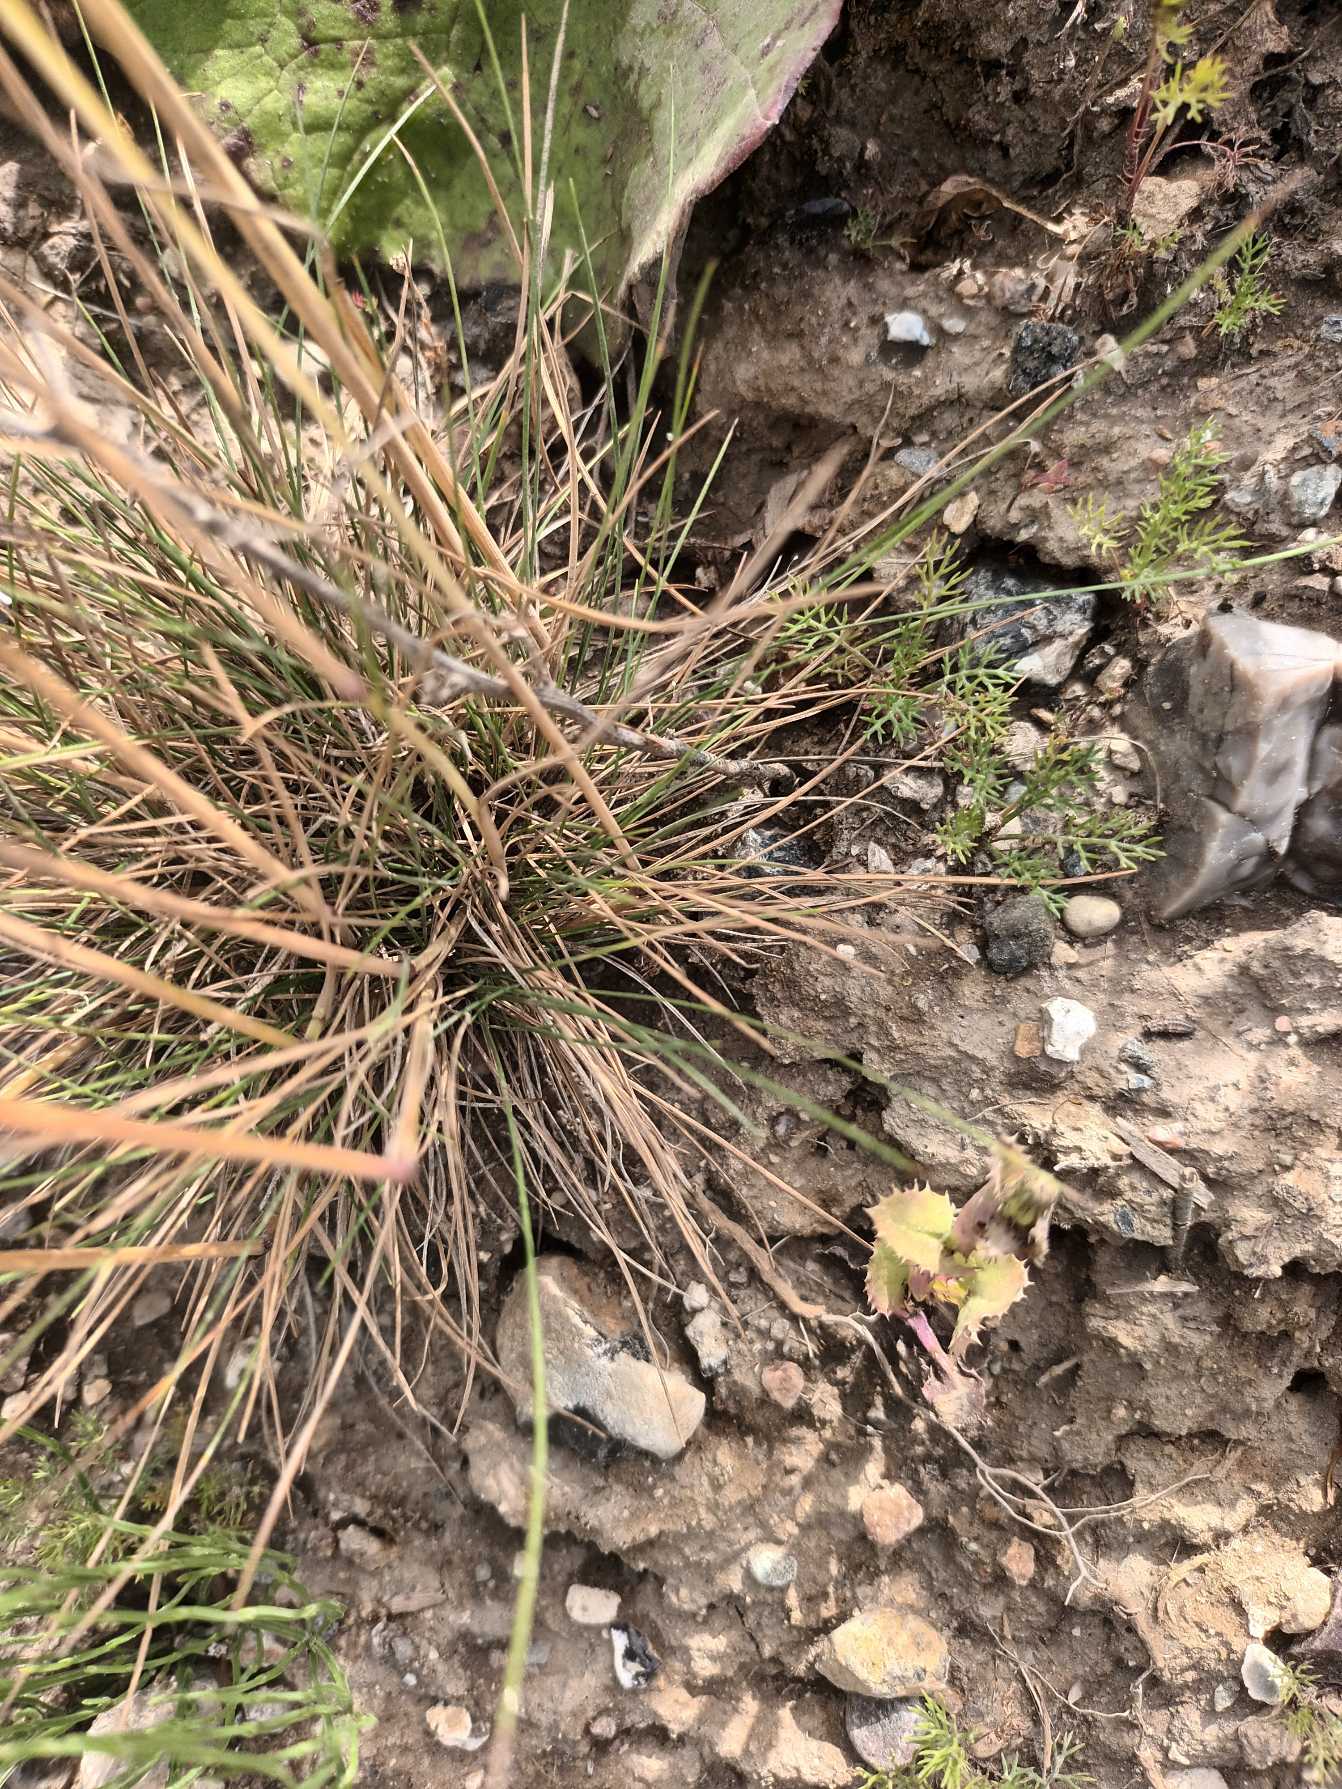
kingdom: Plantae
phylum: Tracheophyta
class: Liliopsida
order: Poales
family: Poaceae
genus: Festuca
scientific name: Festuca ovina
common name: Fåre-svingel
